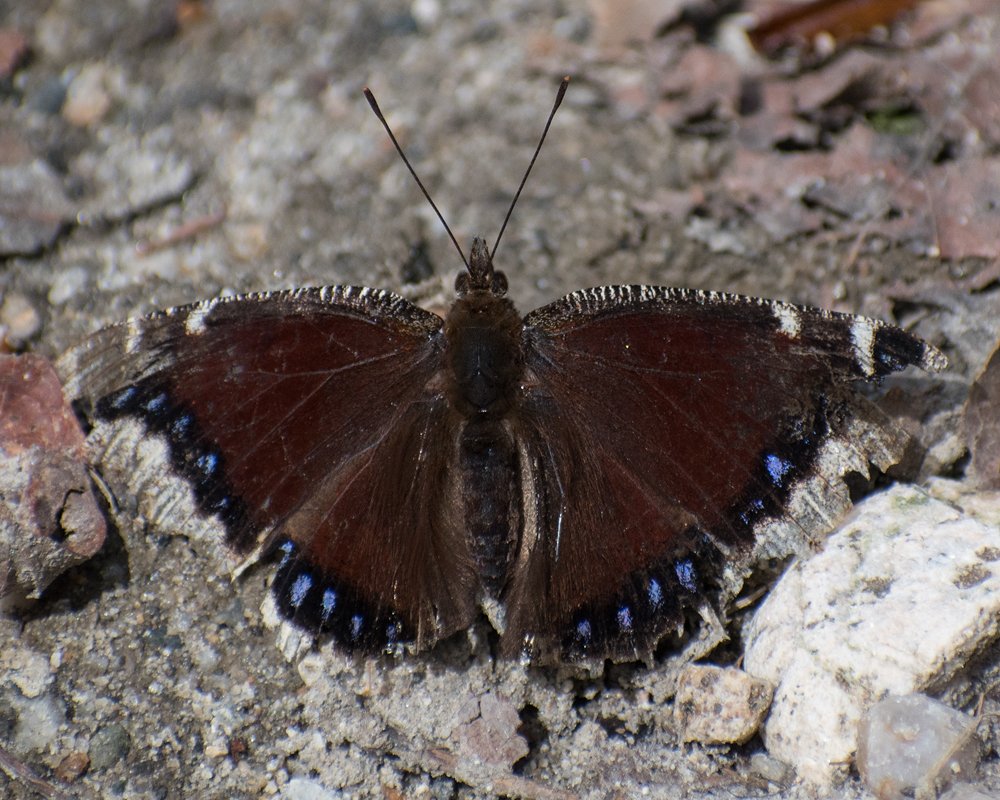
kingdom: Animalia
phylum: Arthropoda
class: Insecta
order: Lepidoptera
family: Nymphalidae
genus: Nymphalis
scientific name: Nymphalis antiopa
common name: Mourning Cloak
